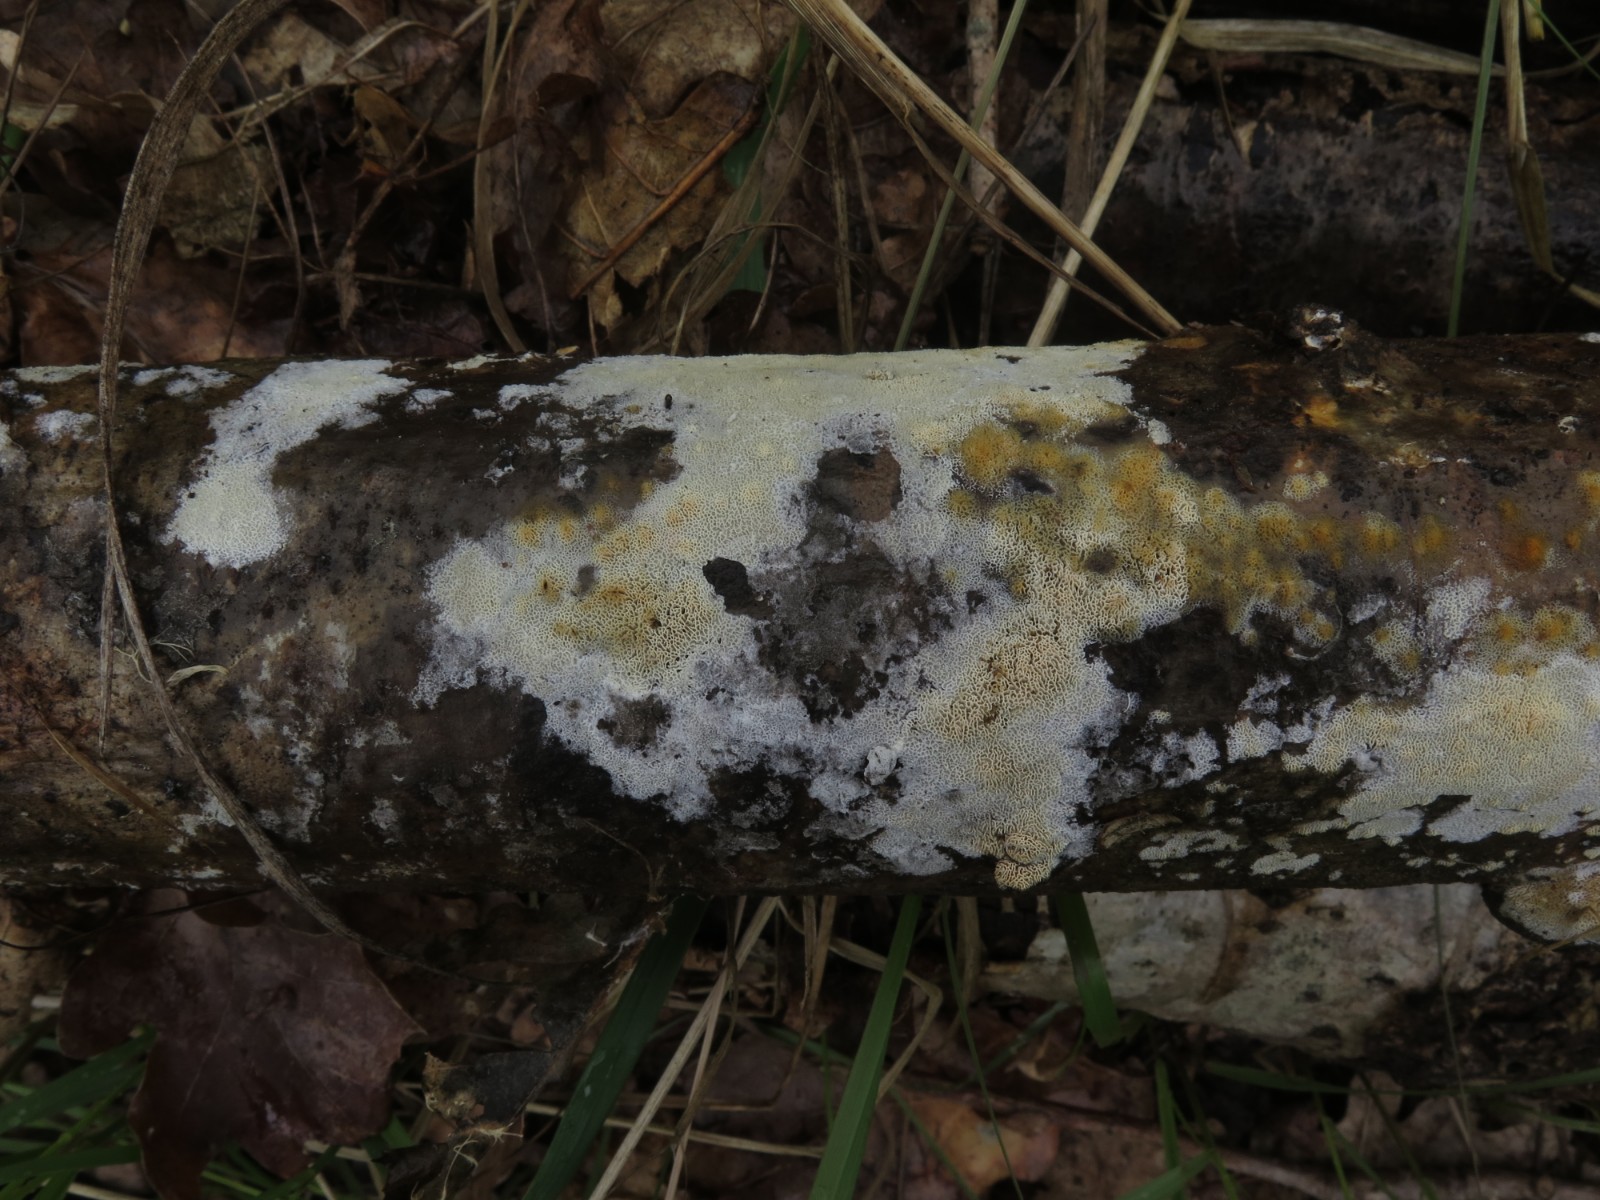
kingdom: Fungi
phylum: Basidiomycota
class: Agaricomycetes
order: Polyporales
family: Irpicaceae
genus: Ceriporia
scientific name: Ceriporia reticulata
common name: netagtig voksporesvamp
